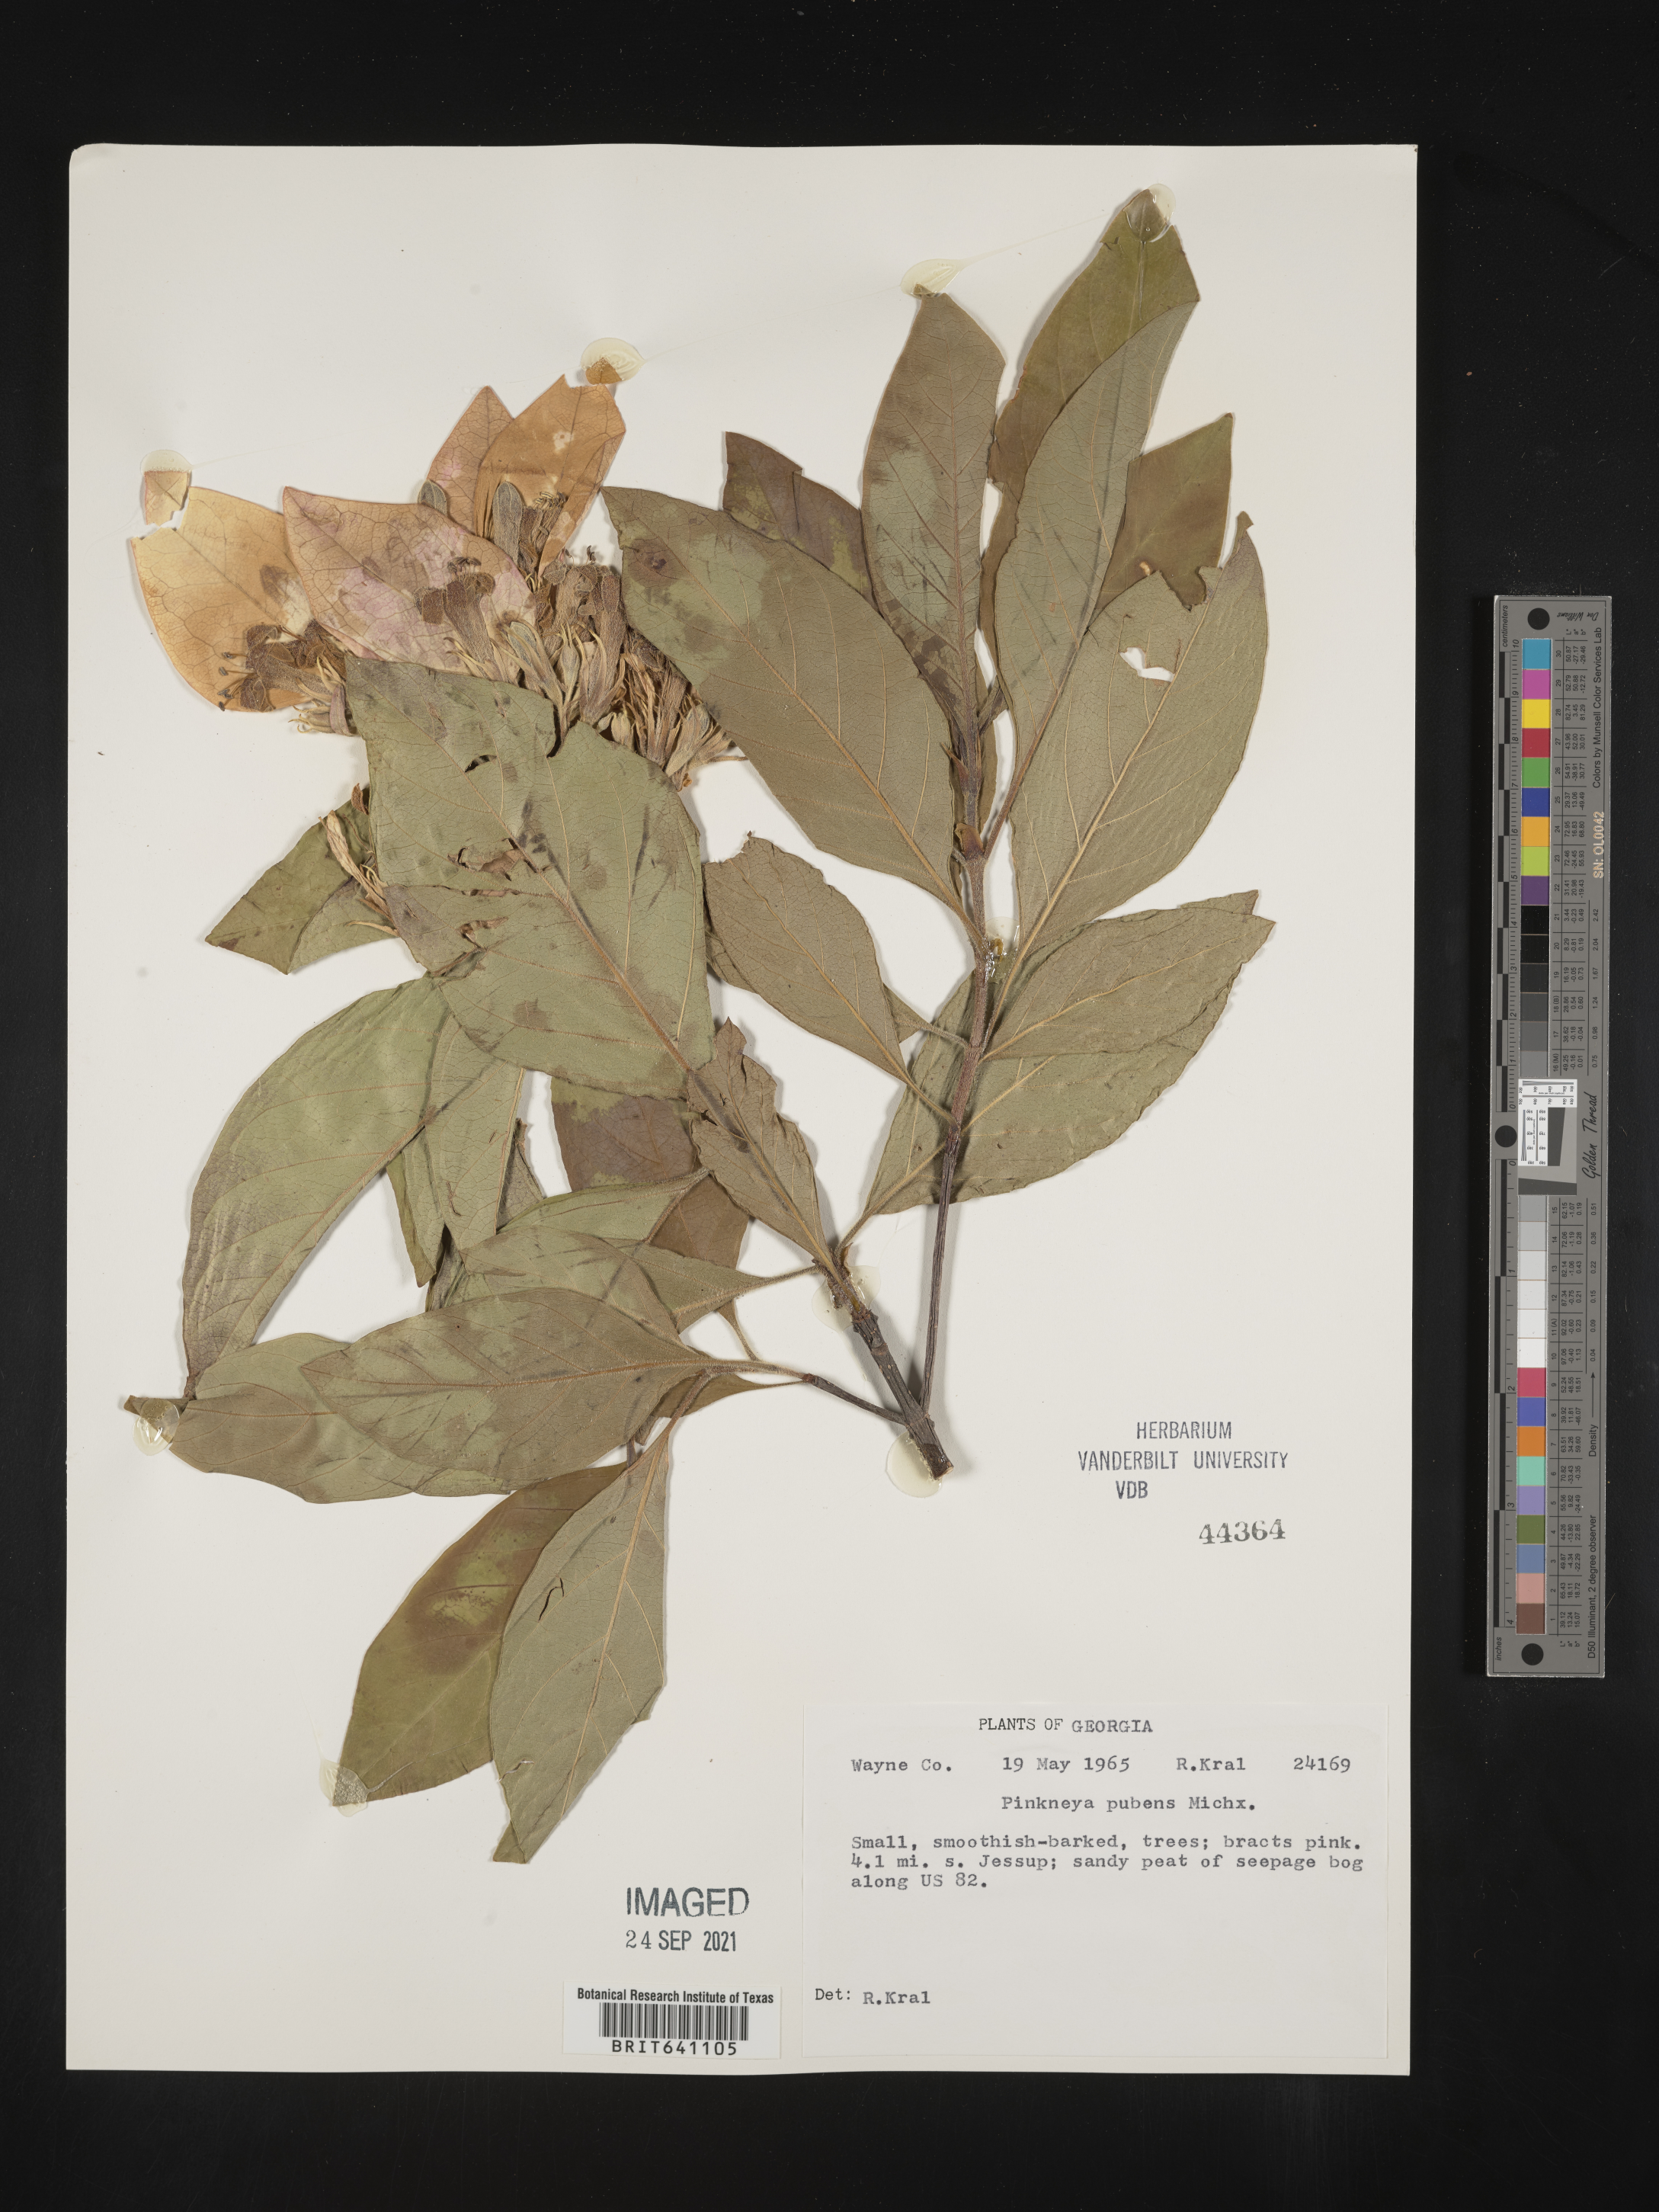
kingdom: Plantae
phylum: Tracheophyta
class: Magnoliopsida
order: Gentianales
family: Rubiaceae
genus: Pinckneya
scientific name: Pinckneya pubens
